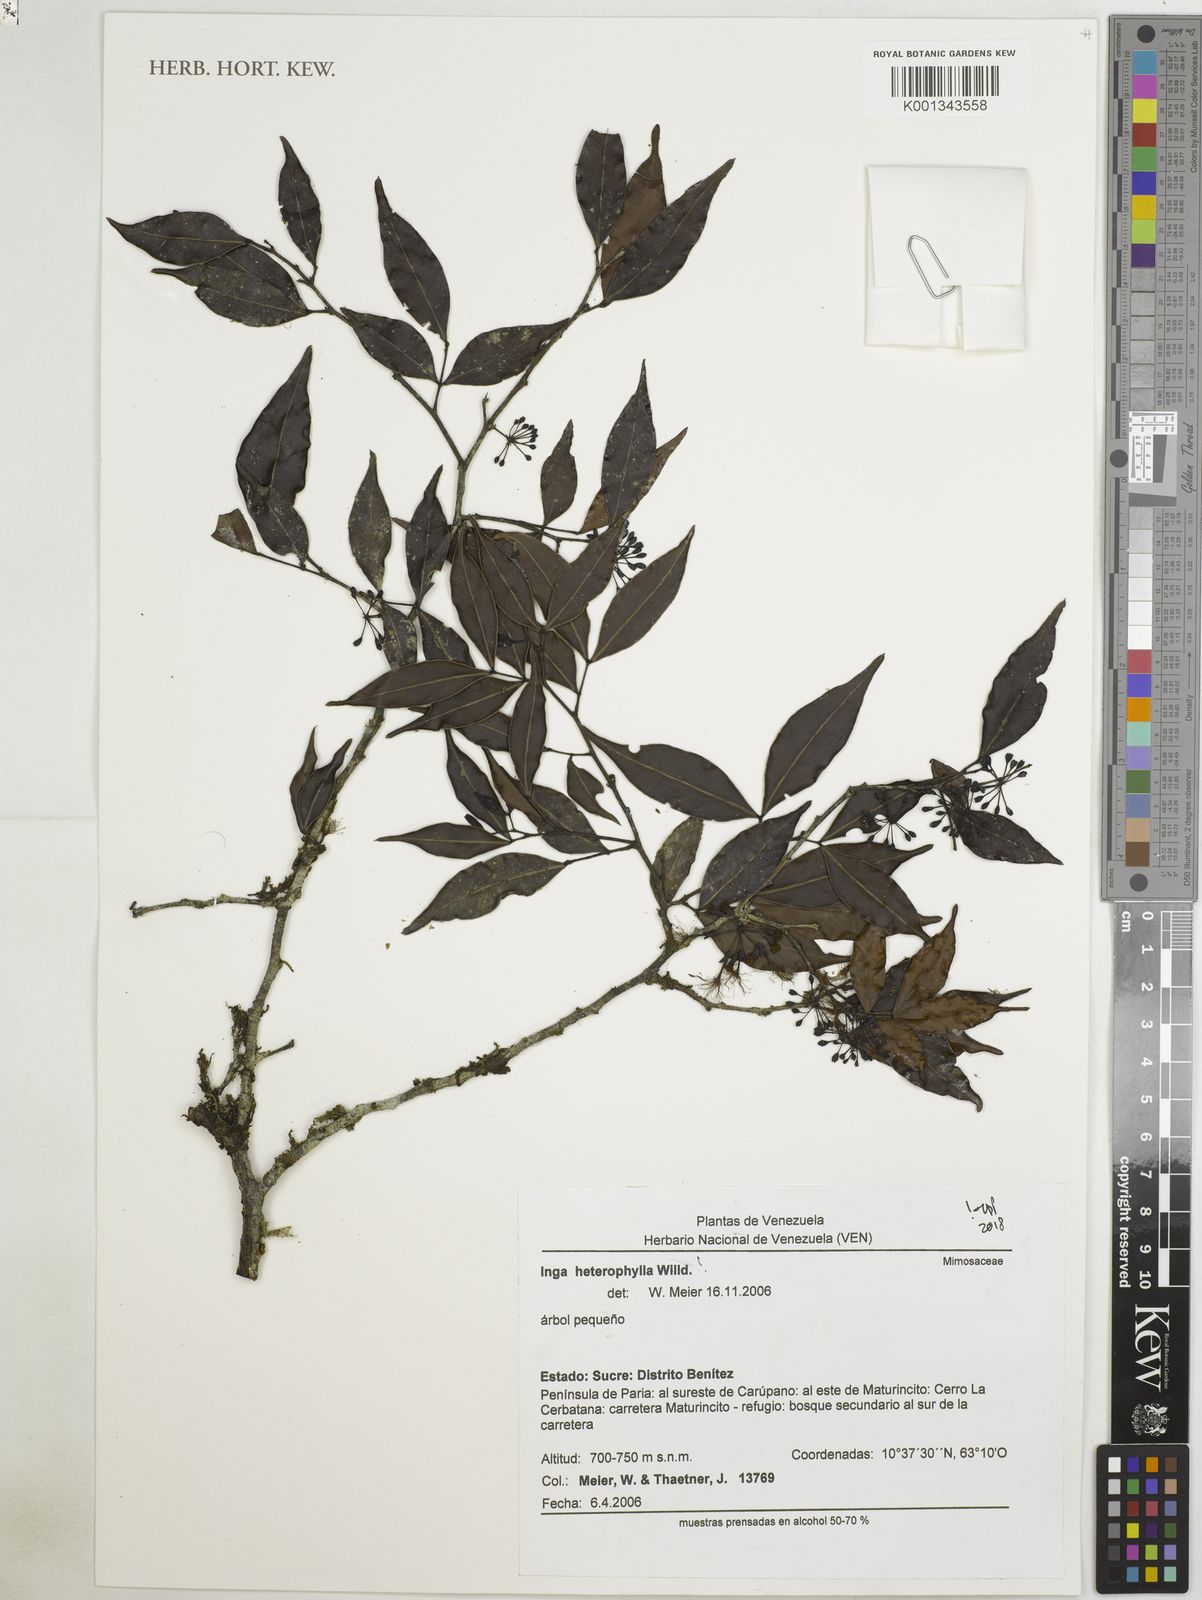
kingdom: Plantae
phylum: Tracheophyta
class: Magnoliopsida
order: Fabales
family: Fabaceae
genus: Inga
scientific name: Inga heterophylla
